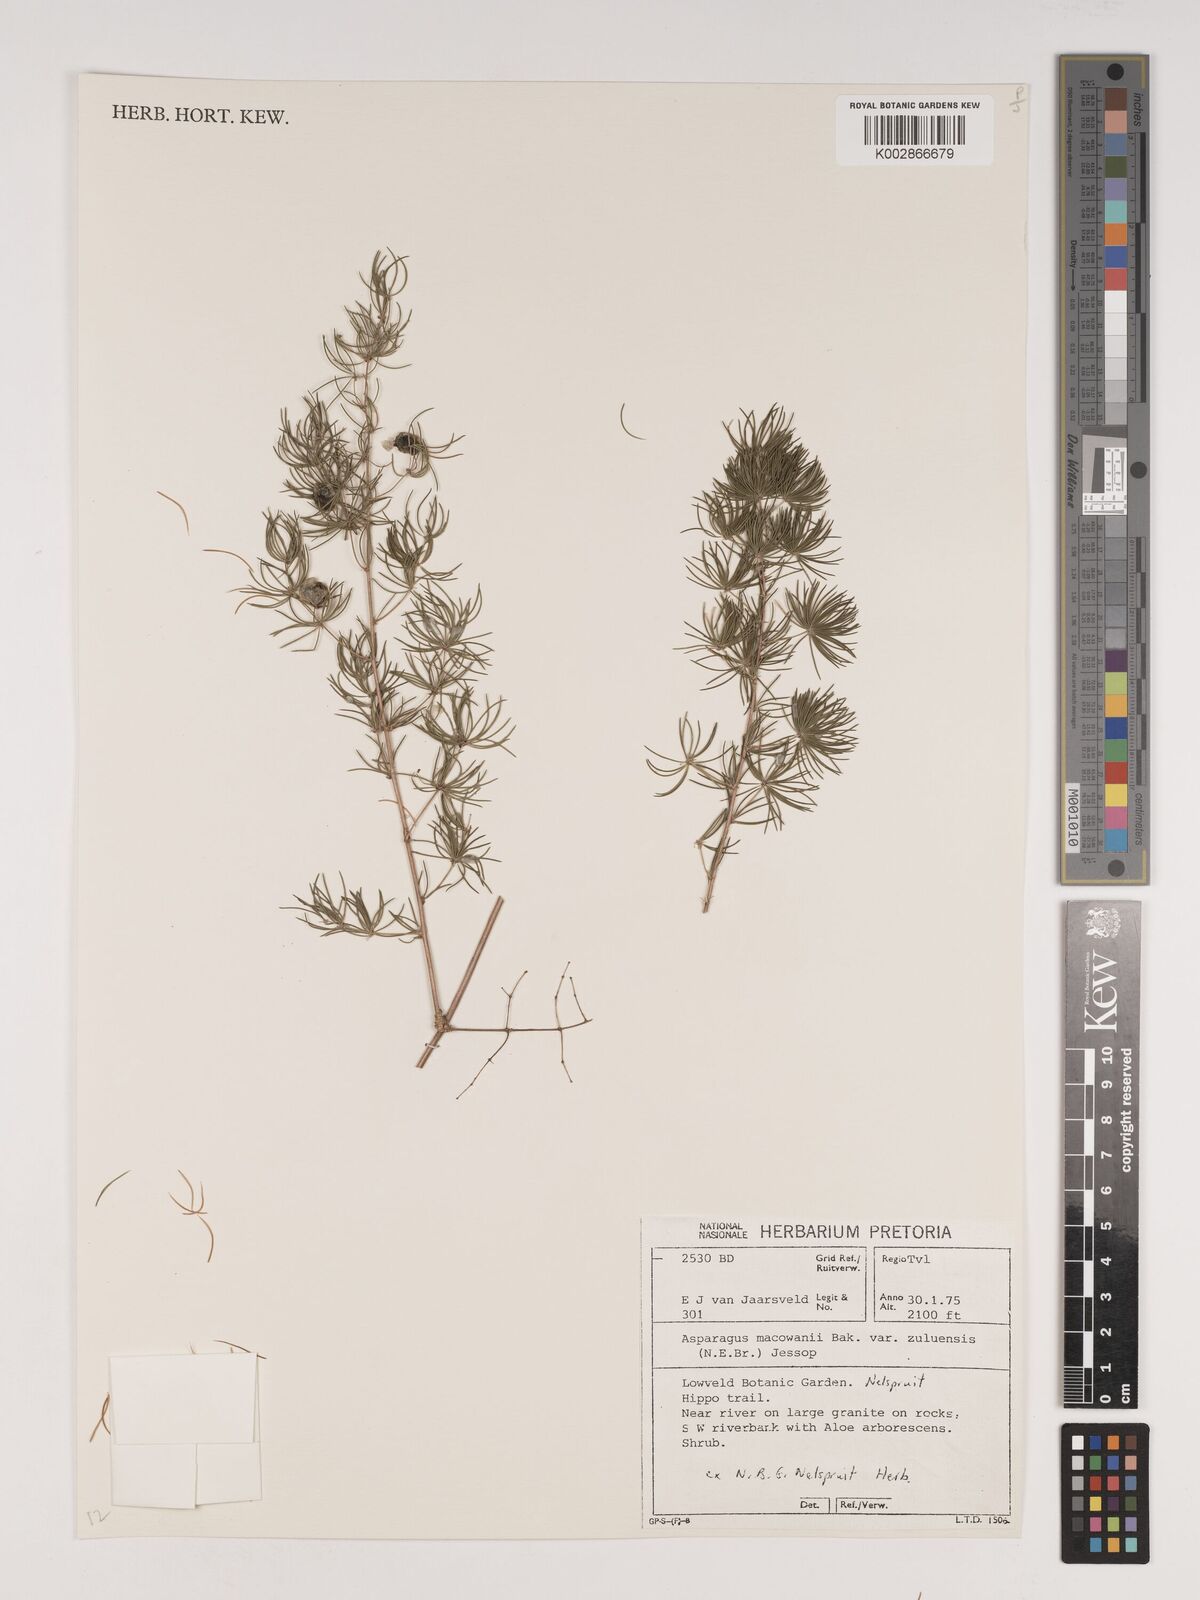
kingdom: Plantae
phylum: Tracheophyta
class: Liliopsida
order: Asparagales
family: Asparagaceae
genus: Asparagus
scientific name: Asparagus
